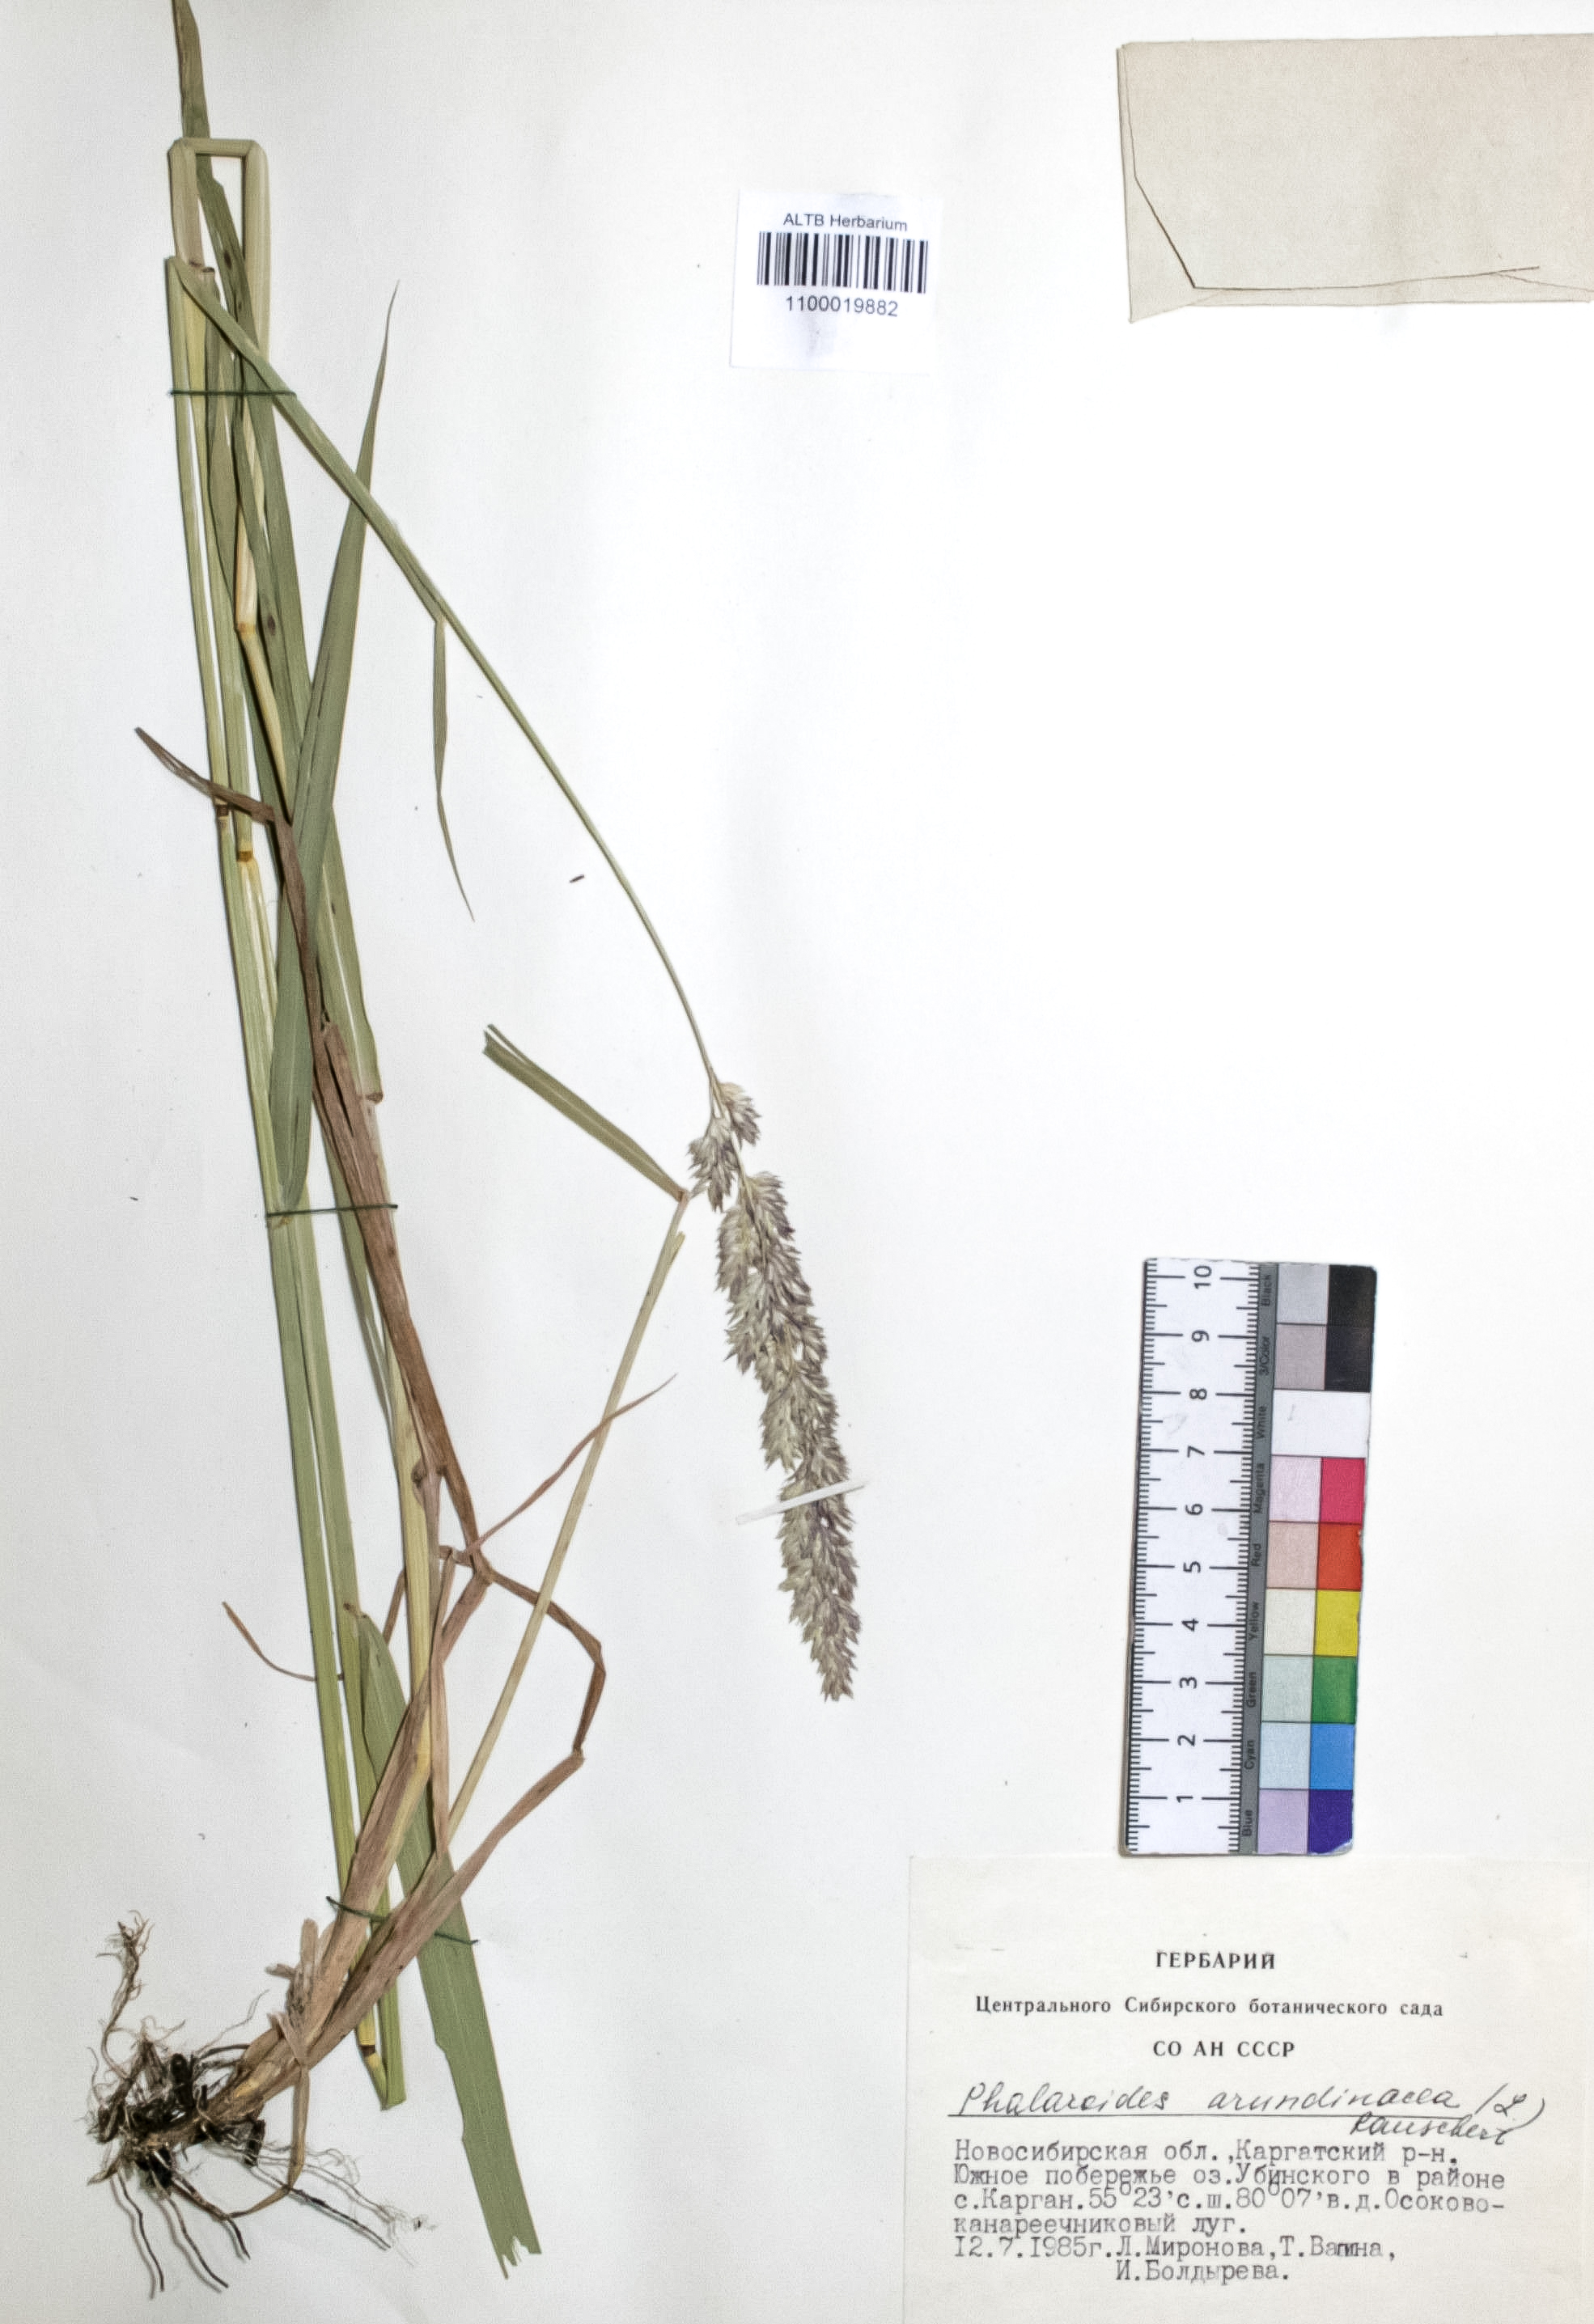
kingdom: Plantae
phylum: Tracheophyta
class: Liliopsida
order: Poales
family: Poaceae
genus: Phalaris
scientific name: Phalaris arundinacea
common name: Reed canary-grass
